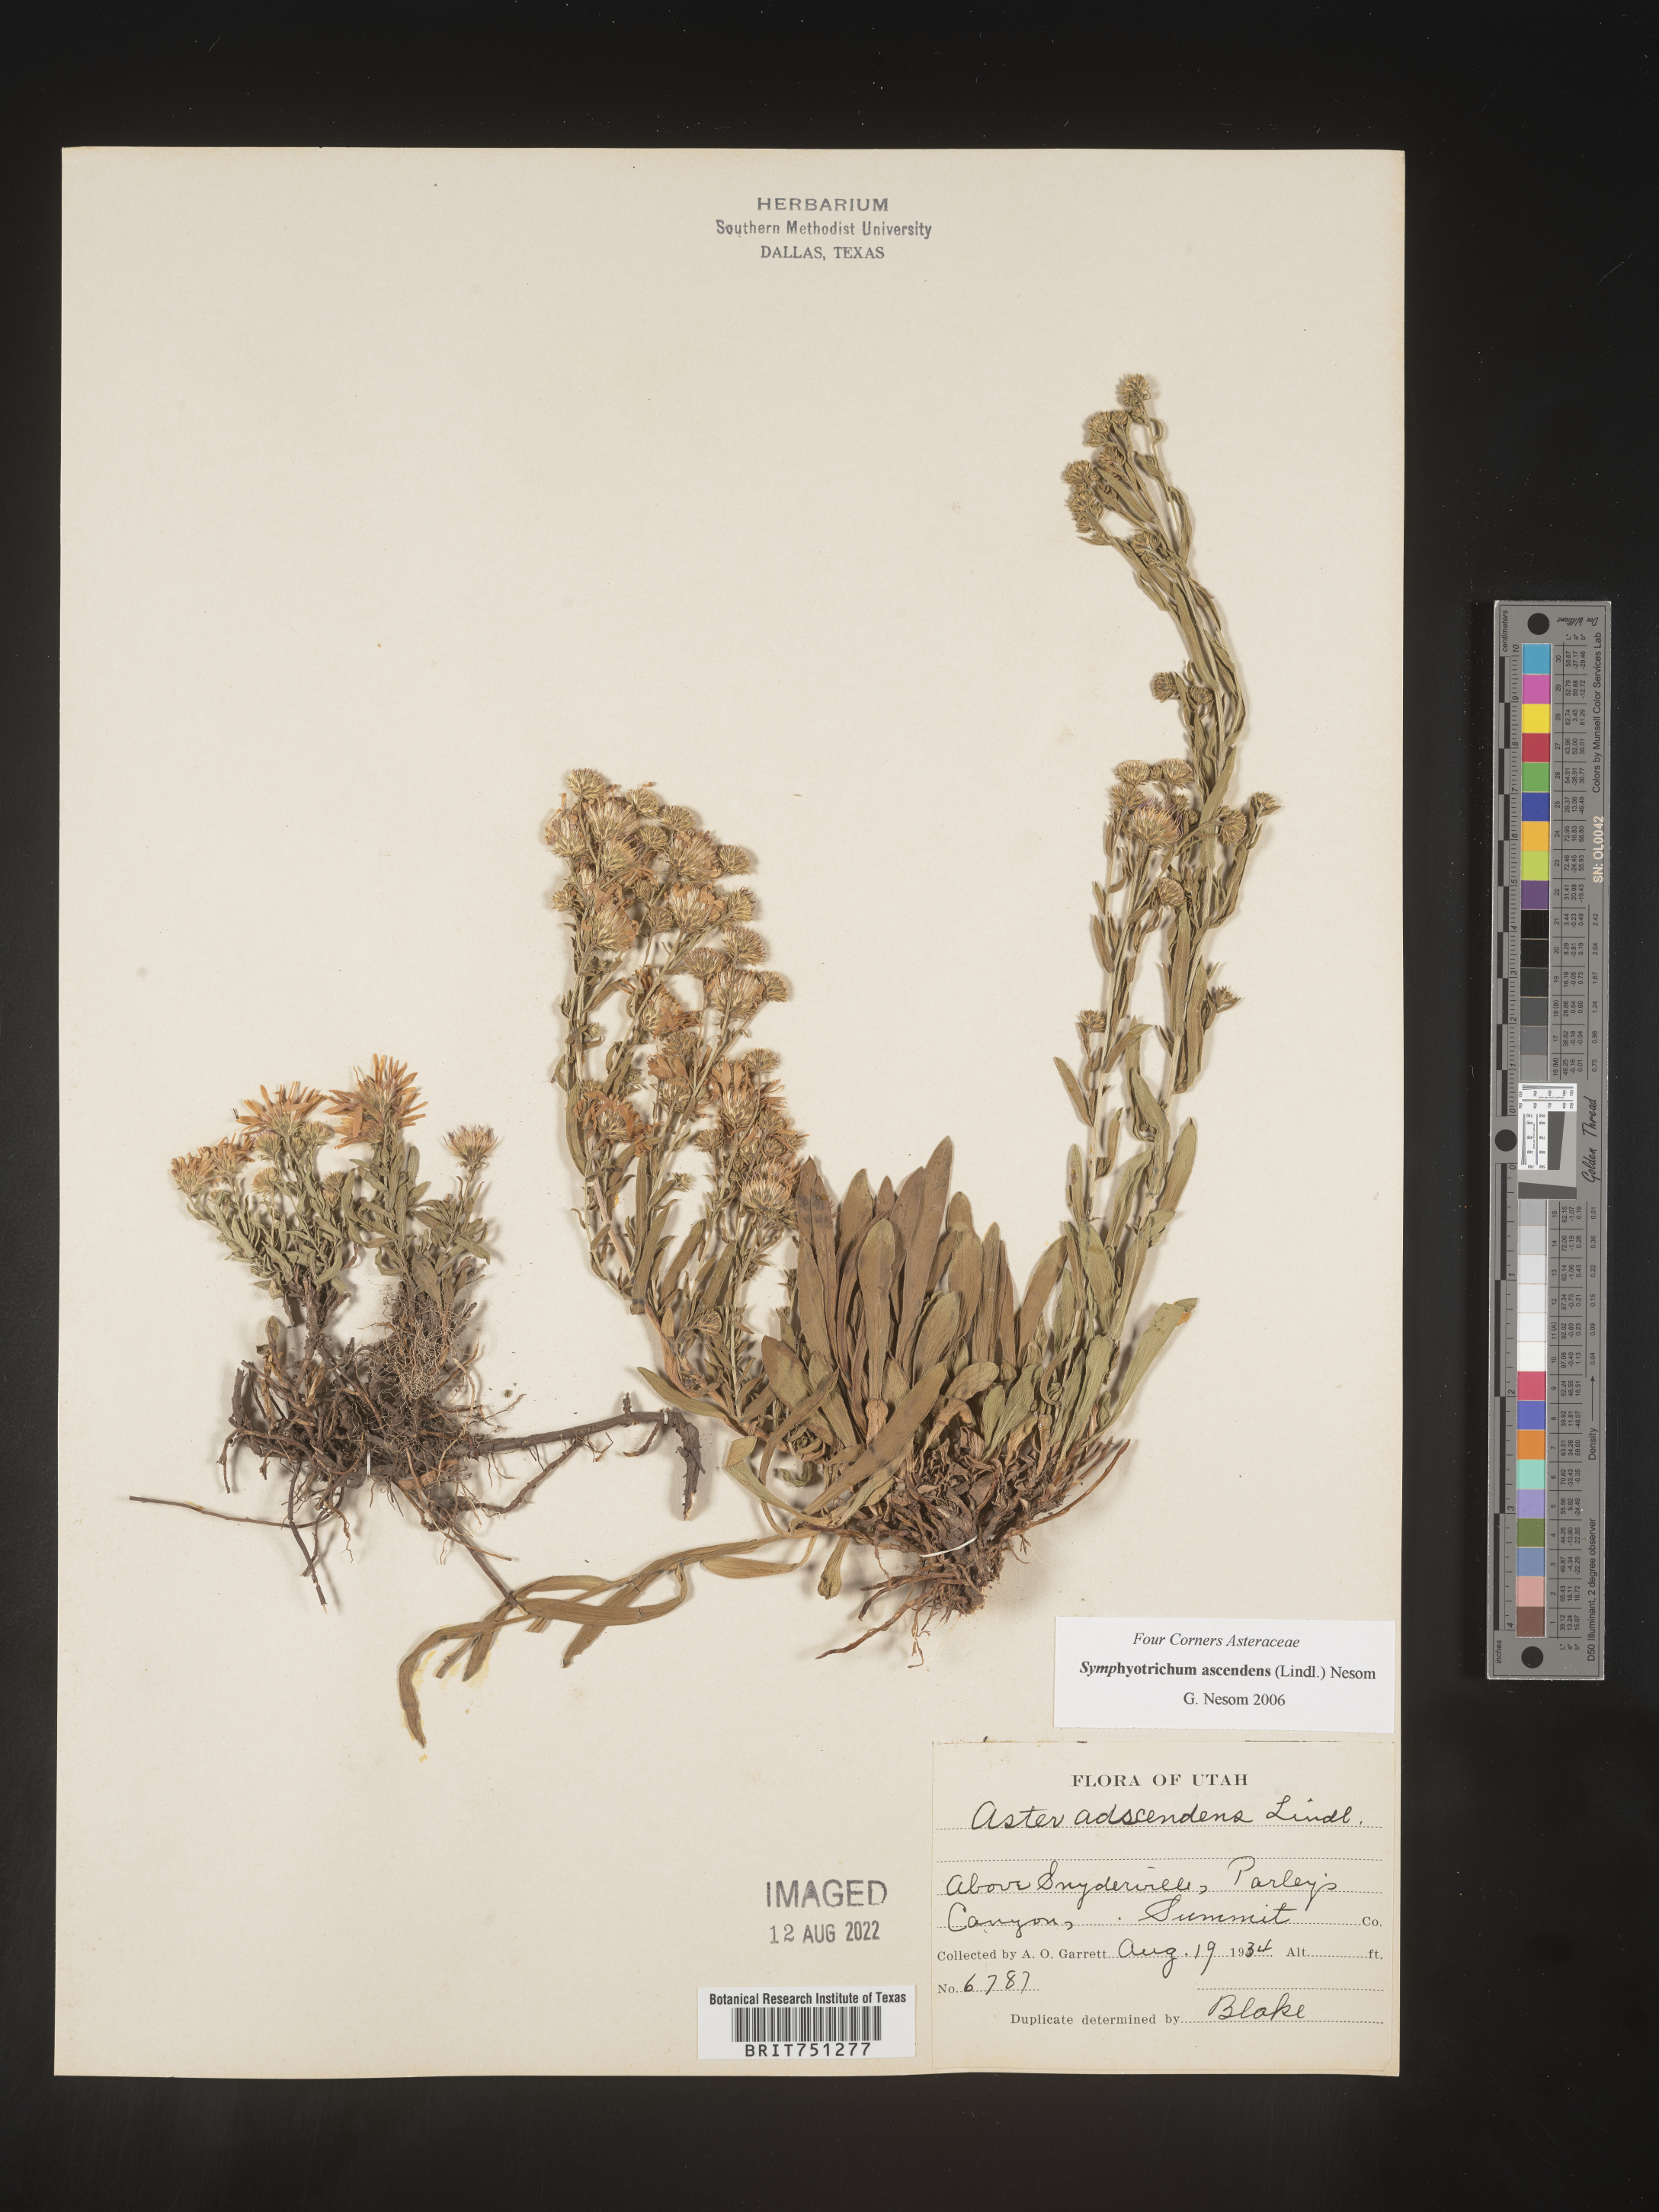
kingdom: Plantae
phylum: Tracheophyta
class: Magnoliopsida
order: Asterales
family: Asteraceae
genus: Symphyotrichum
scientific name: Symphyotrichum ascendens
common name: Intermountain aster
